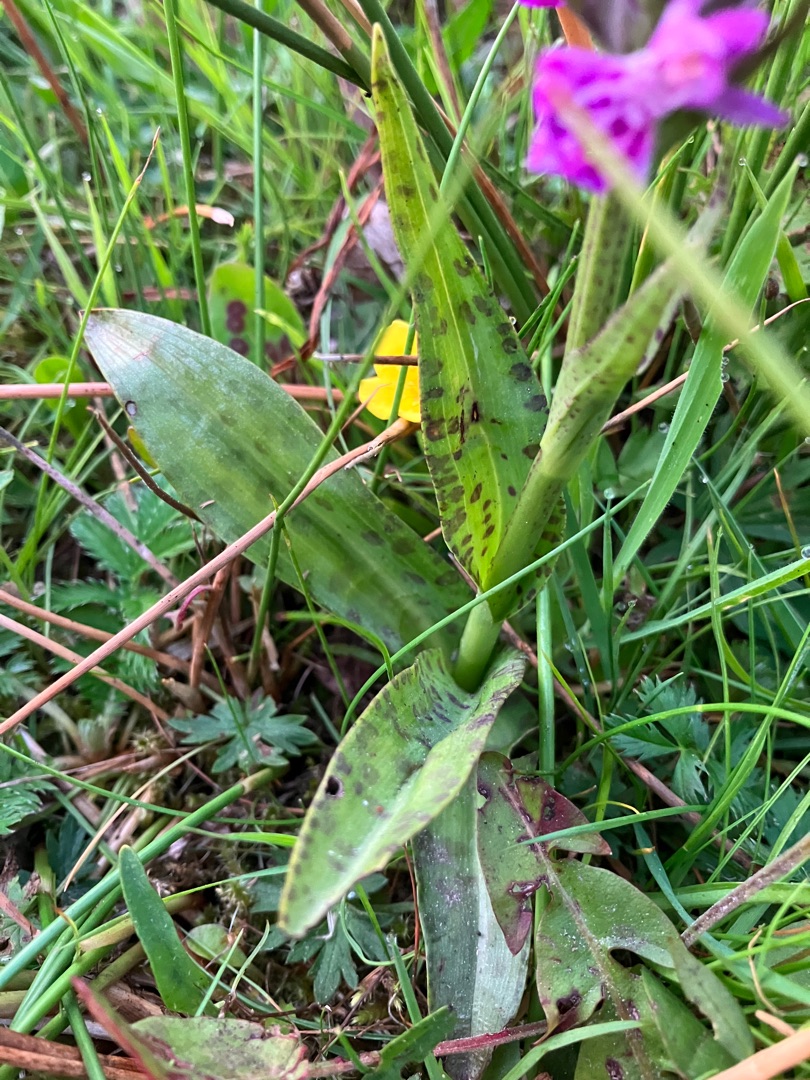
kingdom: Plantae
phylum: Tracheophyta
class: Liliopsida
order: Asparagales
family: Orchidaceae
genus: Dactylorhiza
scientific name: Dactylorhiza majalis
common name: Vendsyssel-gøgeurt
